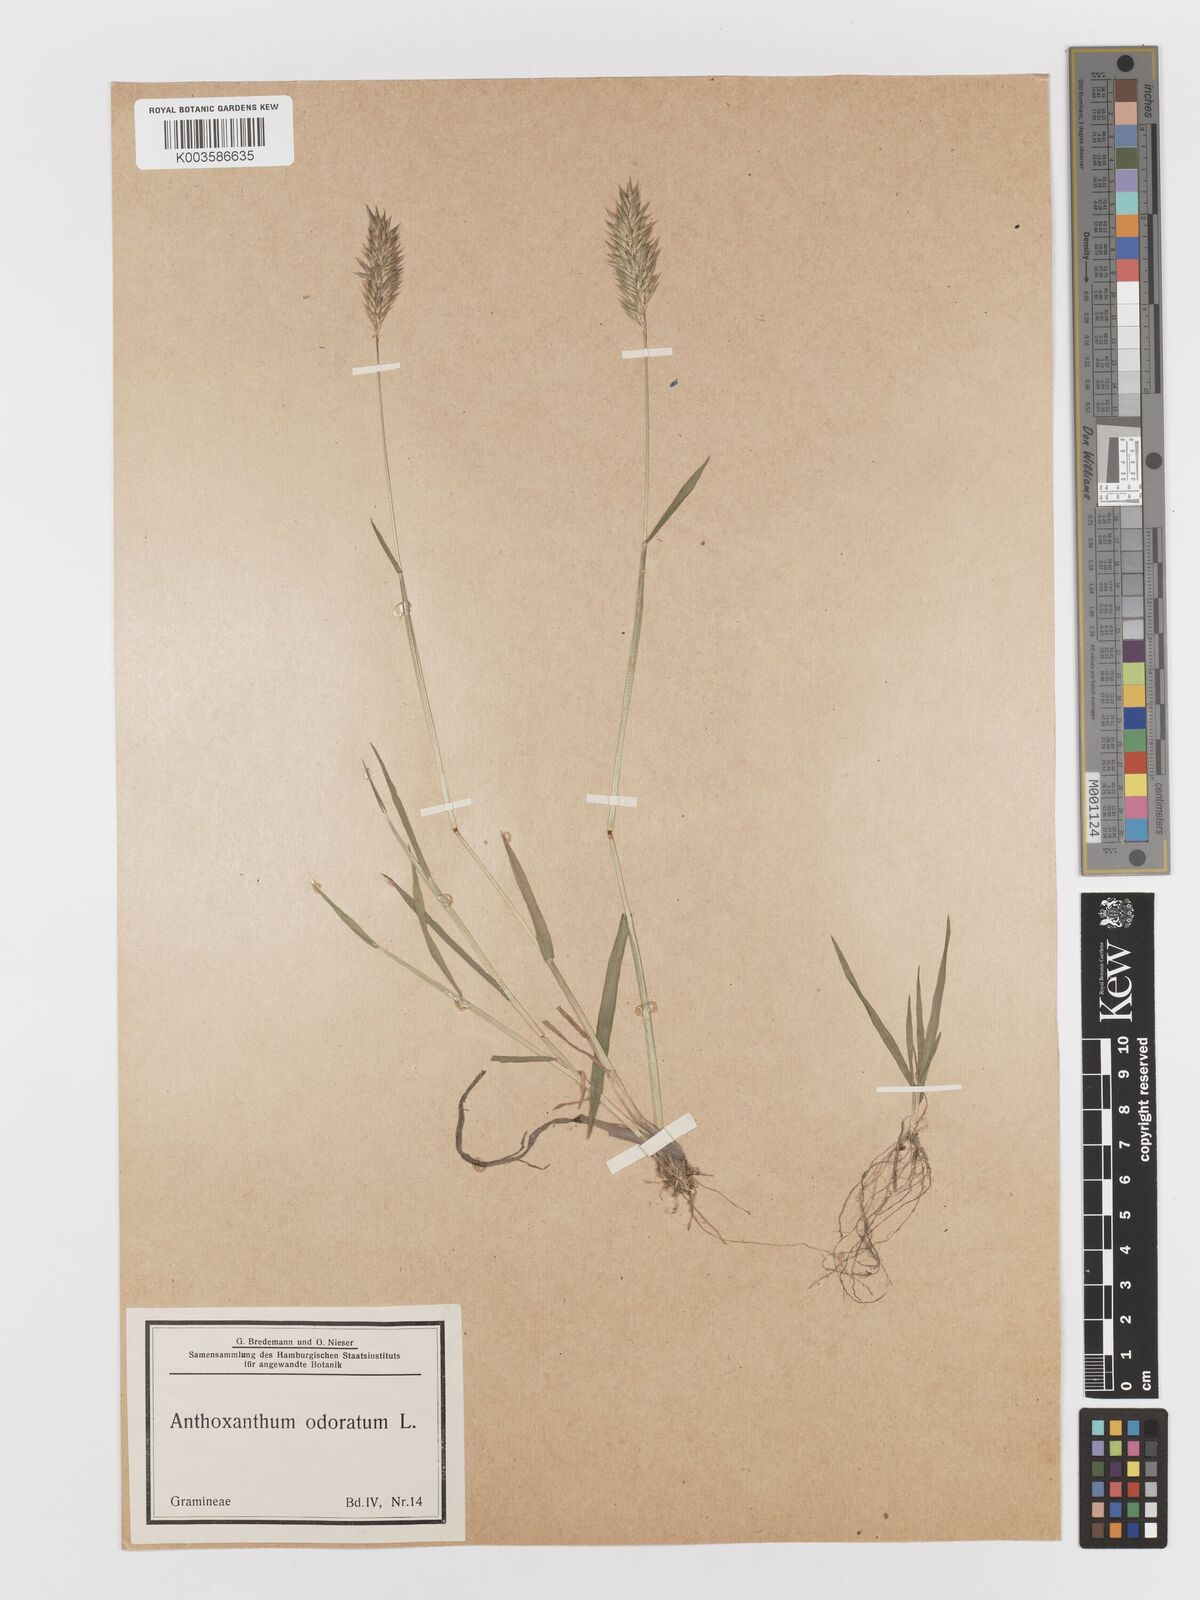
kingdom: Plantae
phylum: Tracheophyta
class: Liliopsida
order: Poales
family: Poaceae
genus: Anthoxanthum
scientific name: Anthoxanthum odoratum
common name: Sweet vernalgrass
